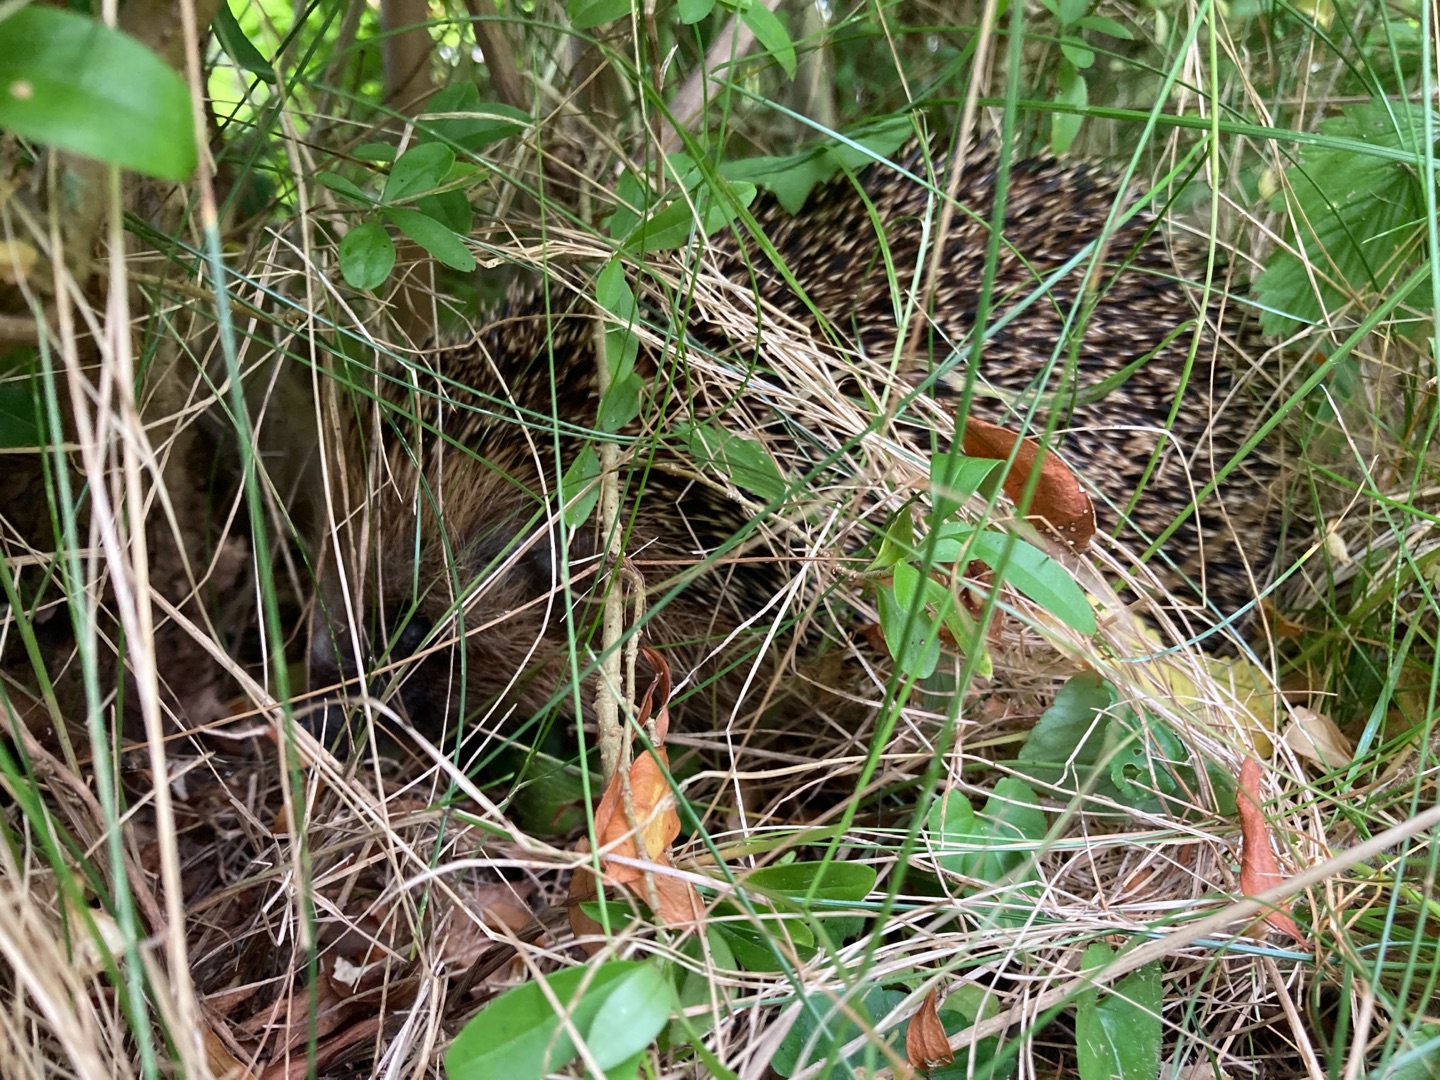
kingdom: Animalia
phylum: Chordata
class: Mammalia
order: Erinaceomorpha
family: Erinaceidae
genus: Erinaceus
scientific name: Erinaceus europaeus
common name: Pindsvin
